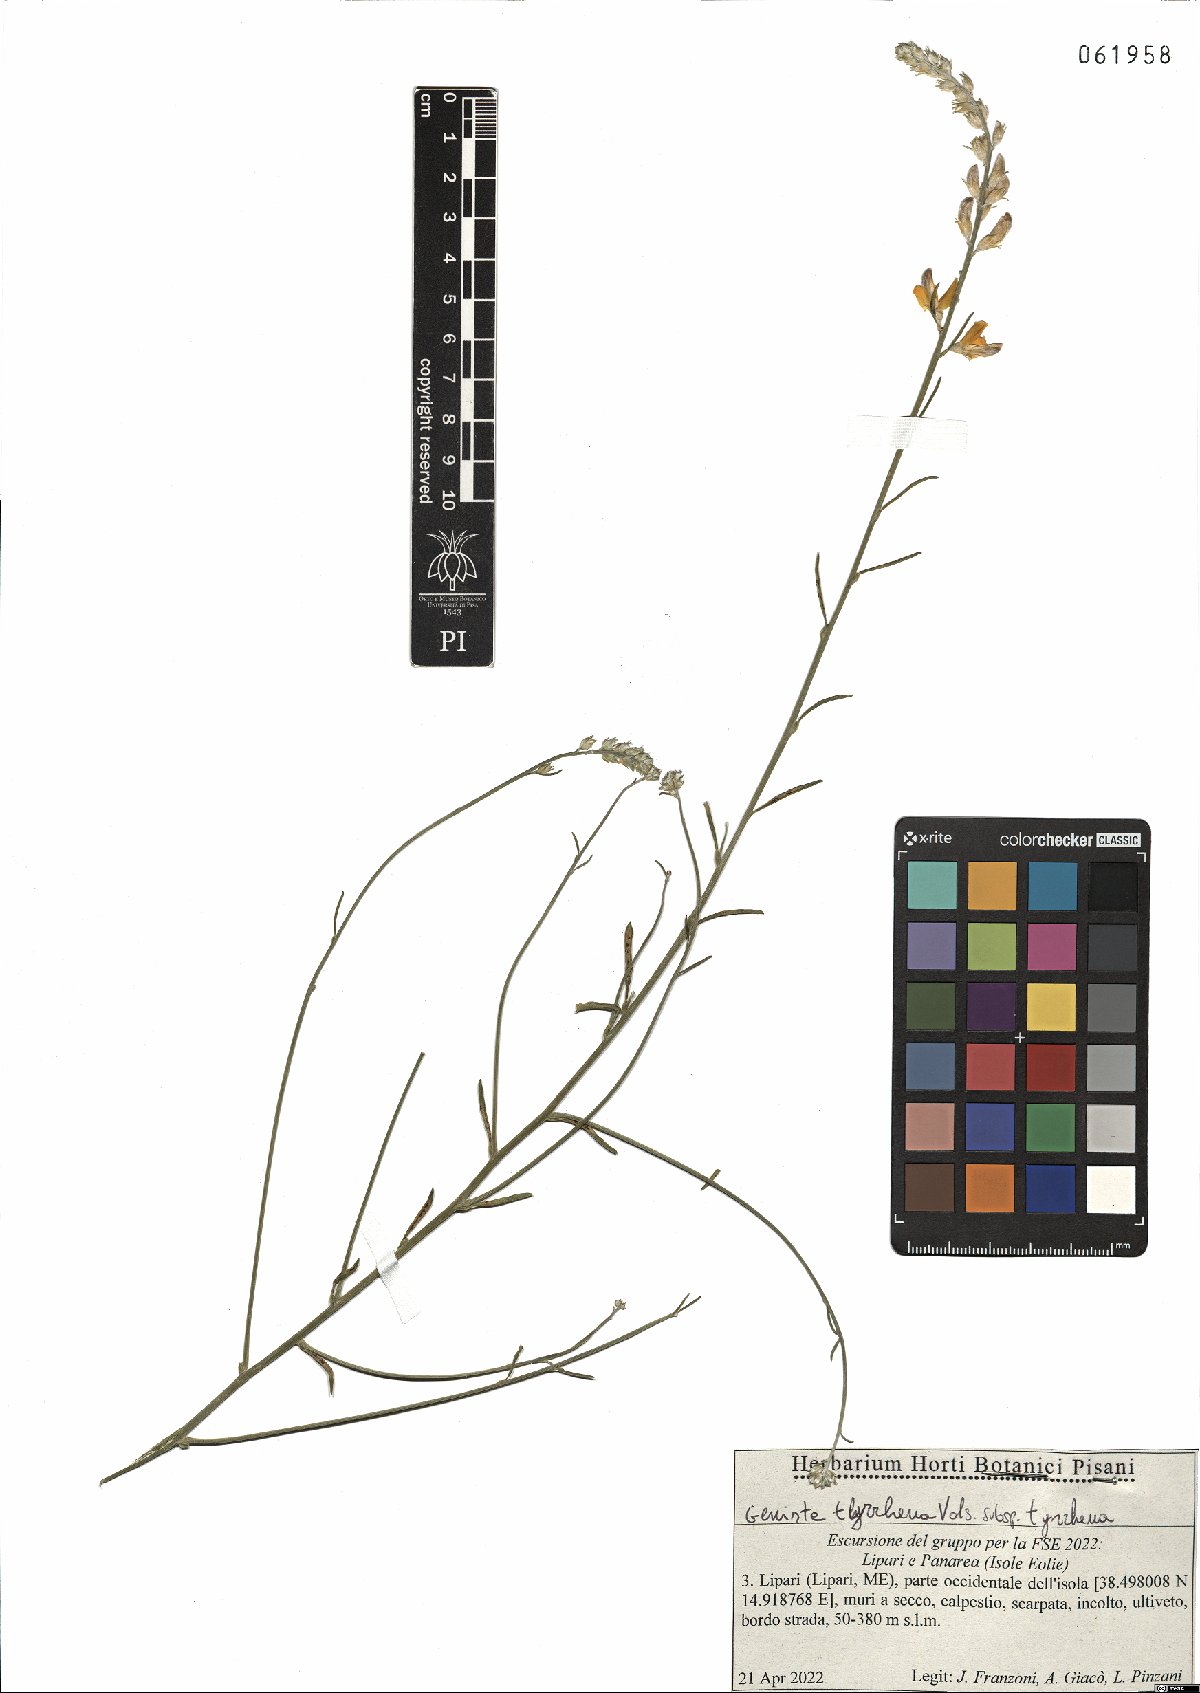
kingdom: Plantae
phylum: Tracheophyta
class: Magnoliopsida
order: Fabales
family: Fabaceae
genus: Genista
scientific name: Genista tyrrhena
